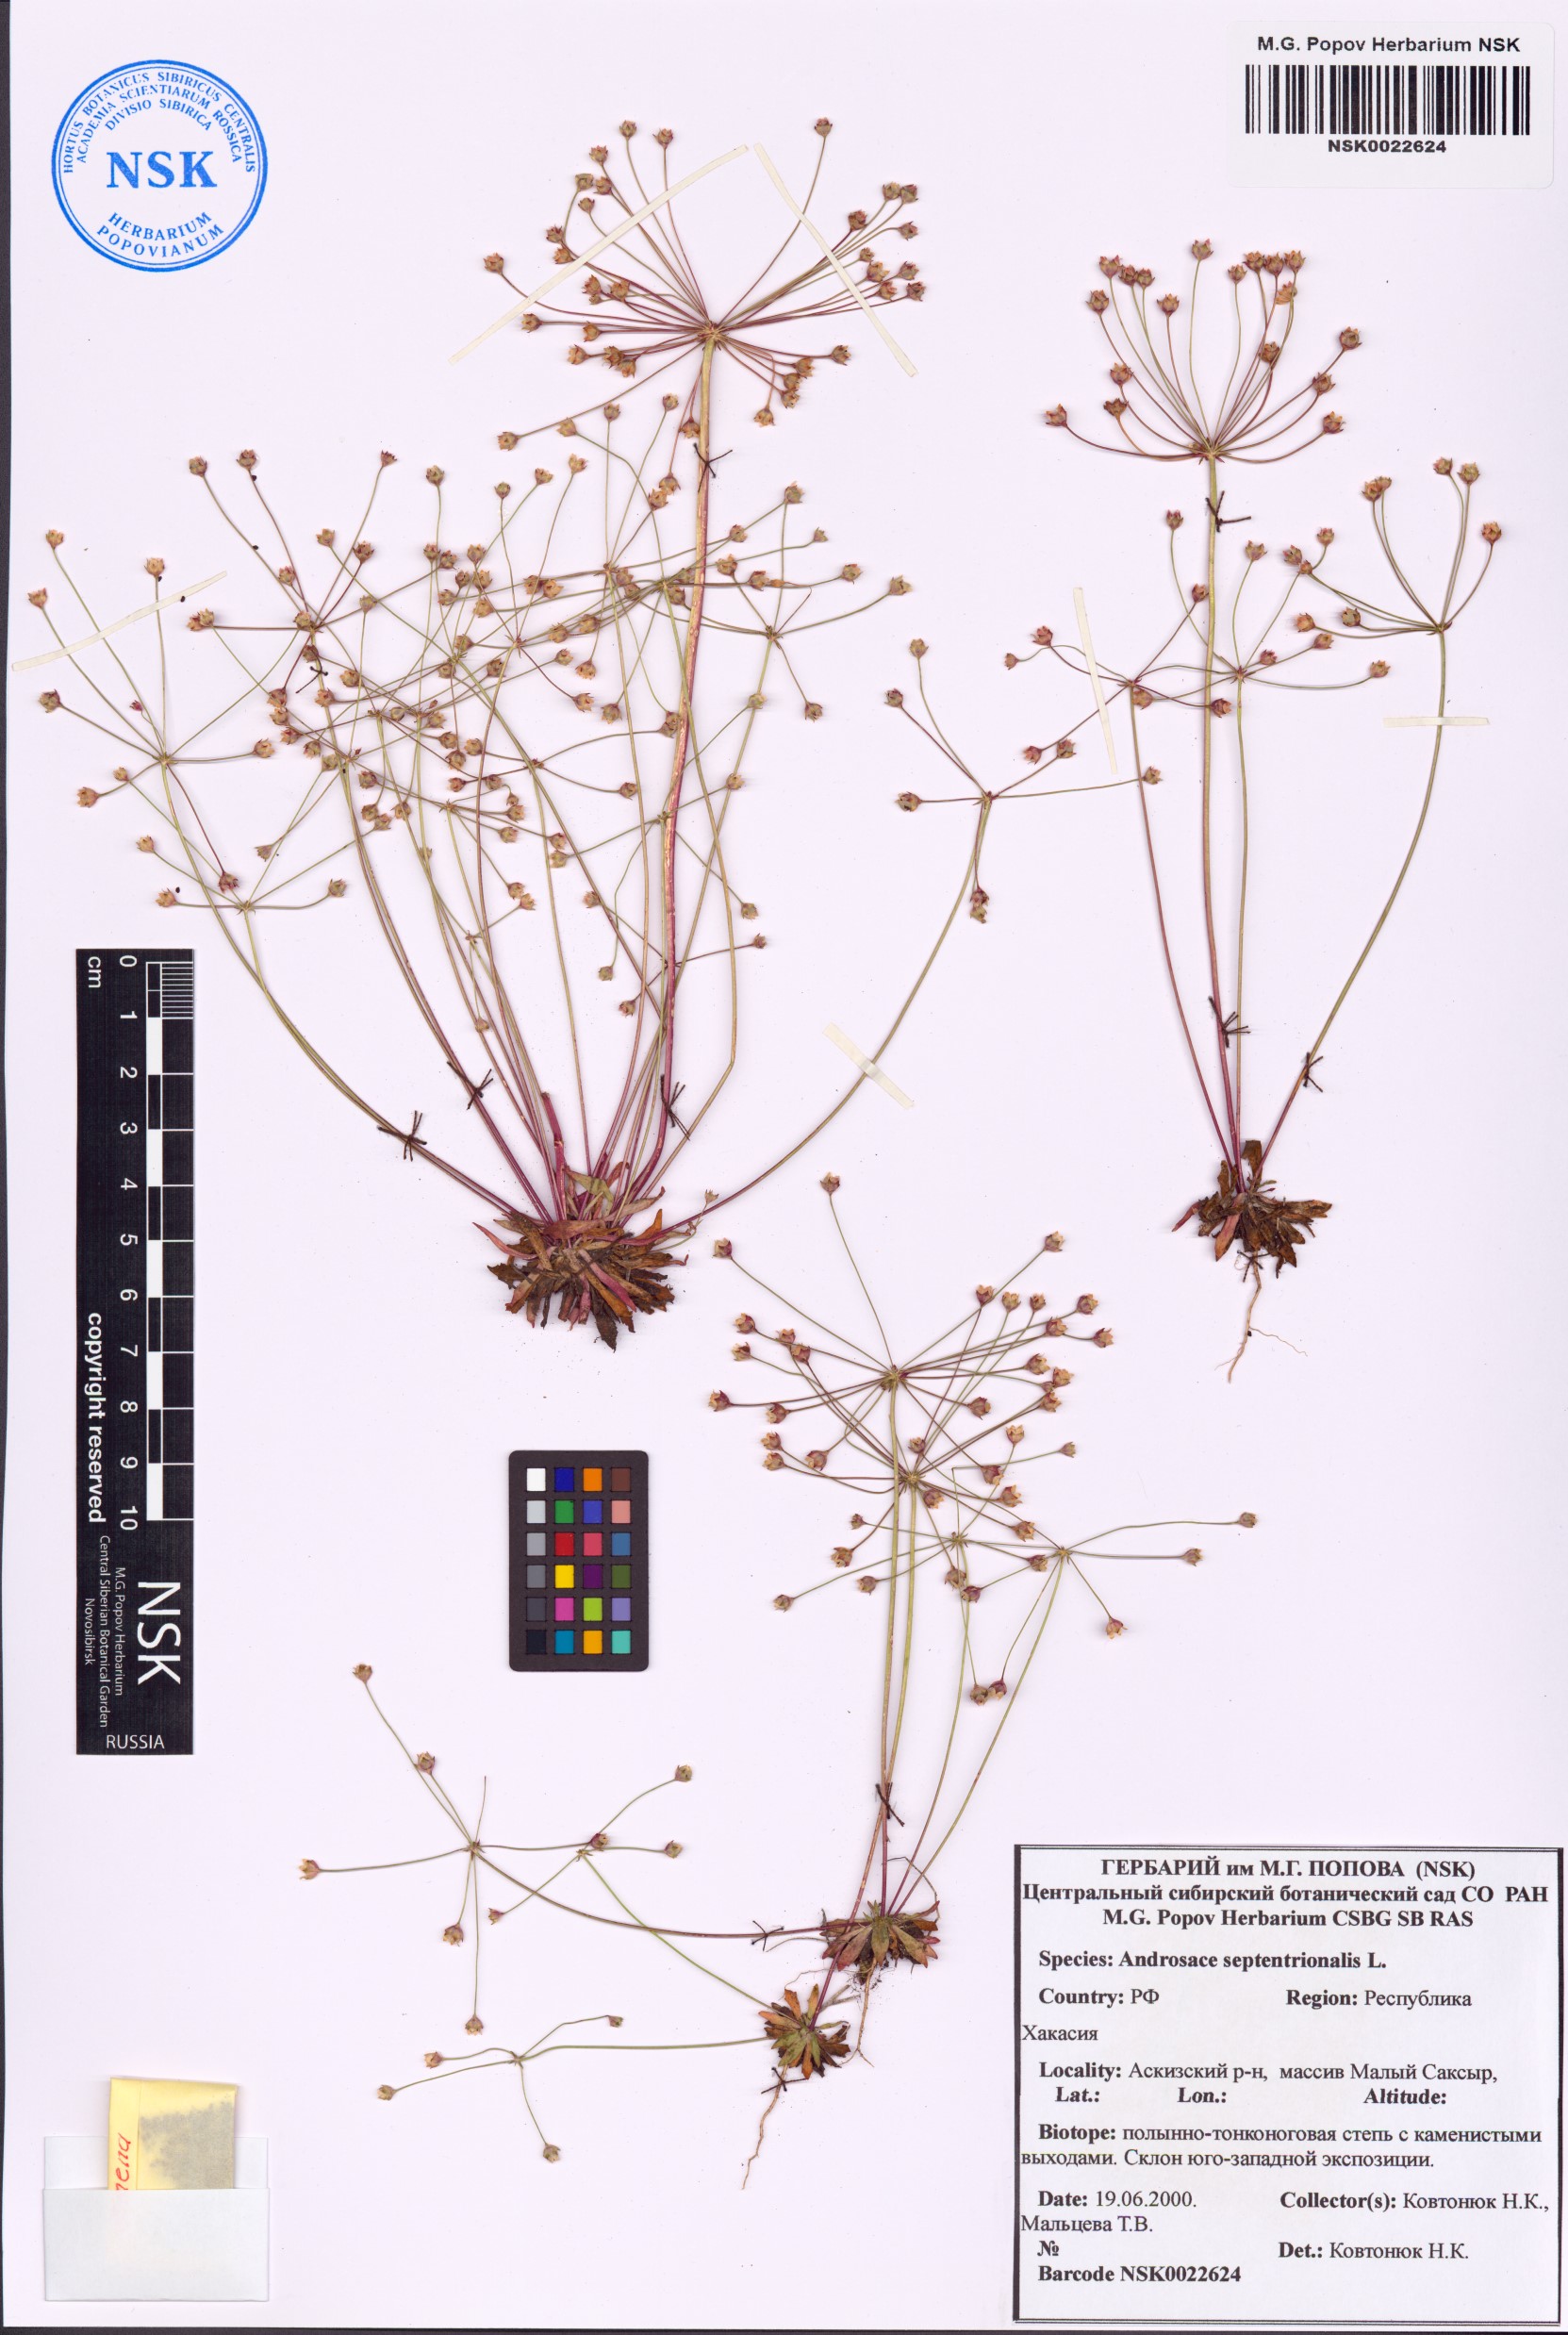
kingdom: Plantae
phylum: Tracheophyta
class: Magnoliopsida
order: Ericales
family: Primulaceae
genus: Androsace
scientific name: Androsace septentrionalis
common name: Hairy northern fairy-candelabra
